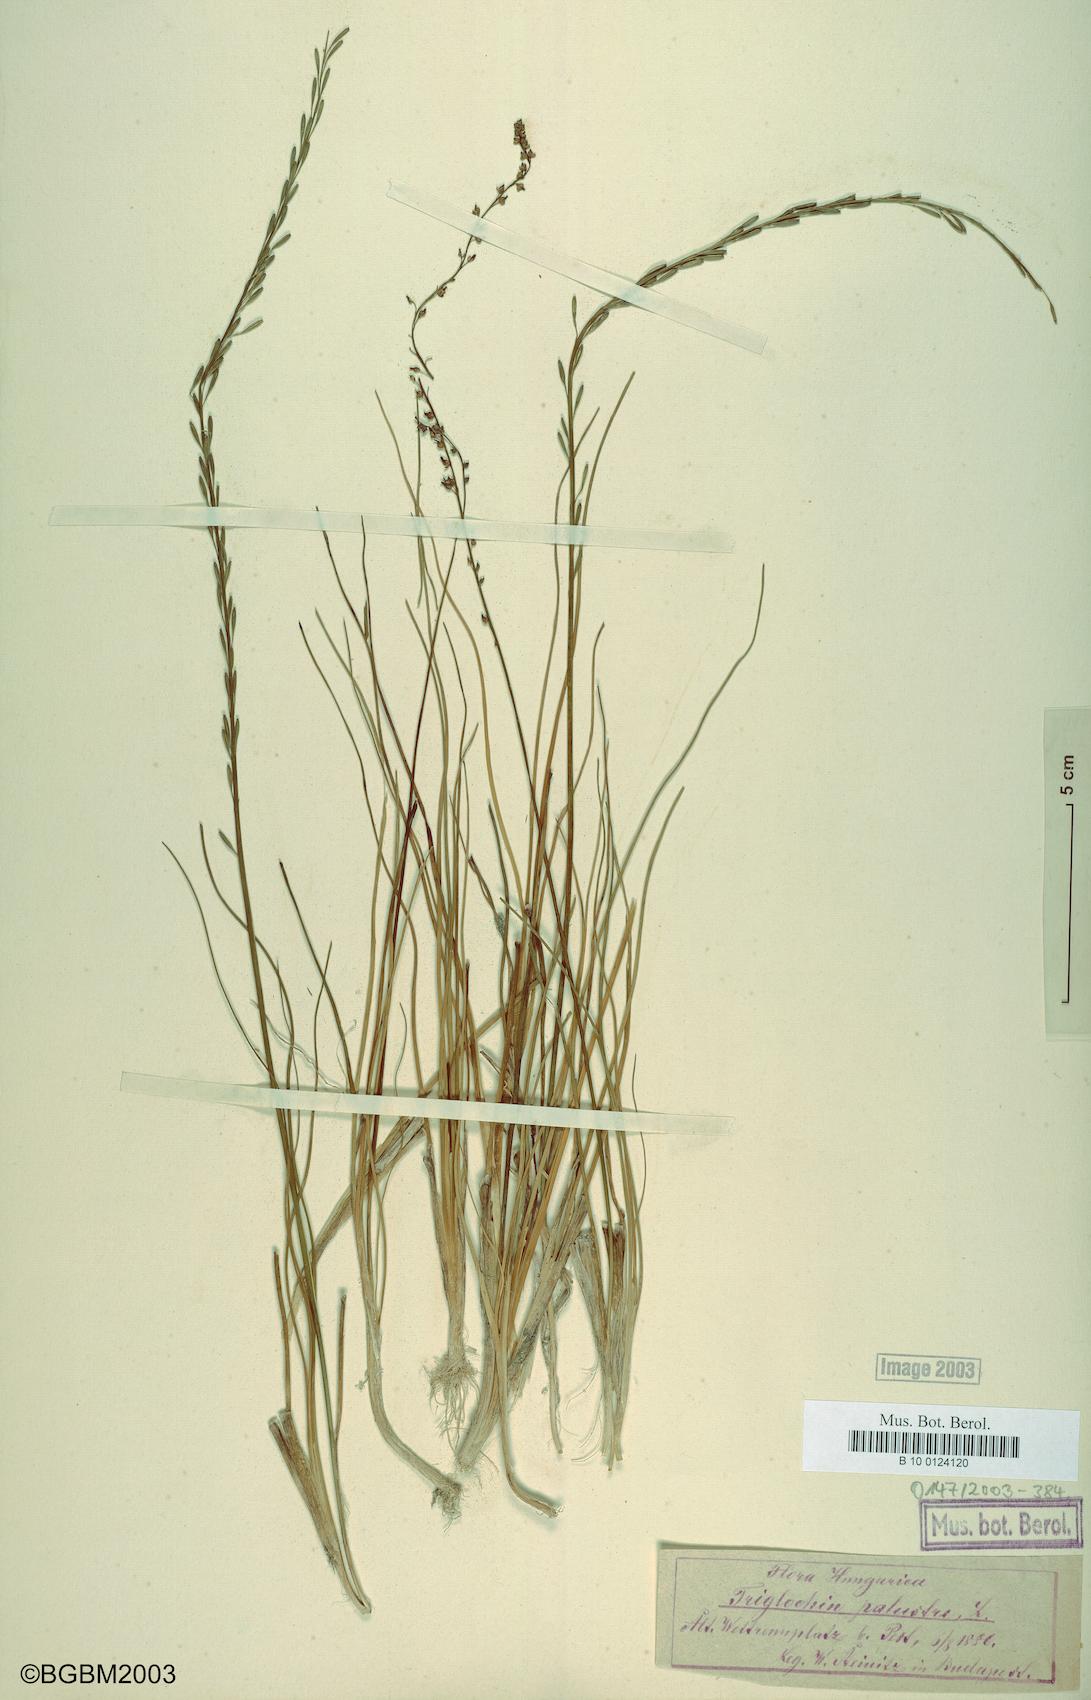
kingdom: Plantae
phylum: Tracheophyta
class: Liliopsida
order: Alismatales
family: Juncaginaceae
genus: Triglochin
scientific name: Triglochin palustris
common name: Marsh arrowgrass
